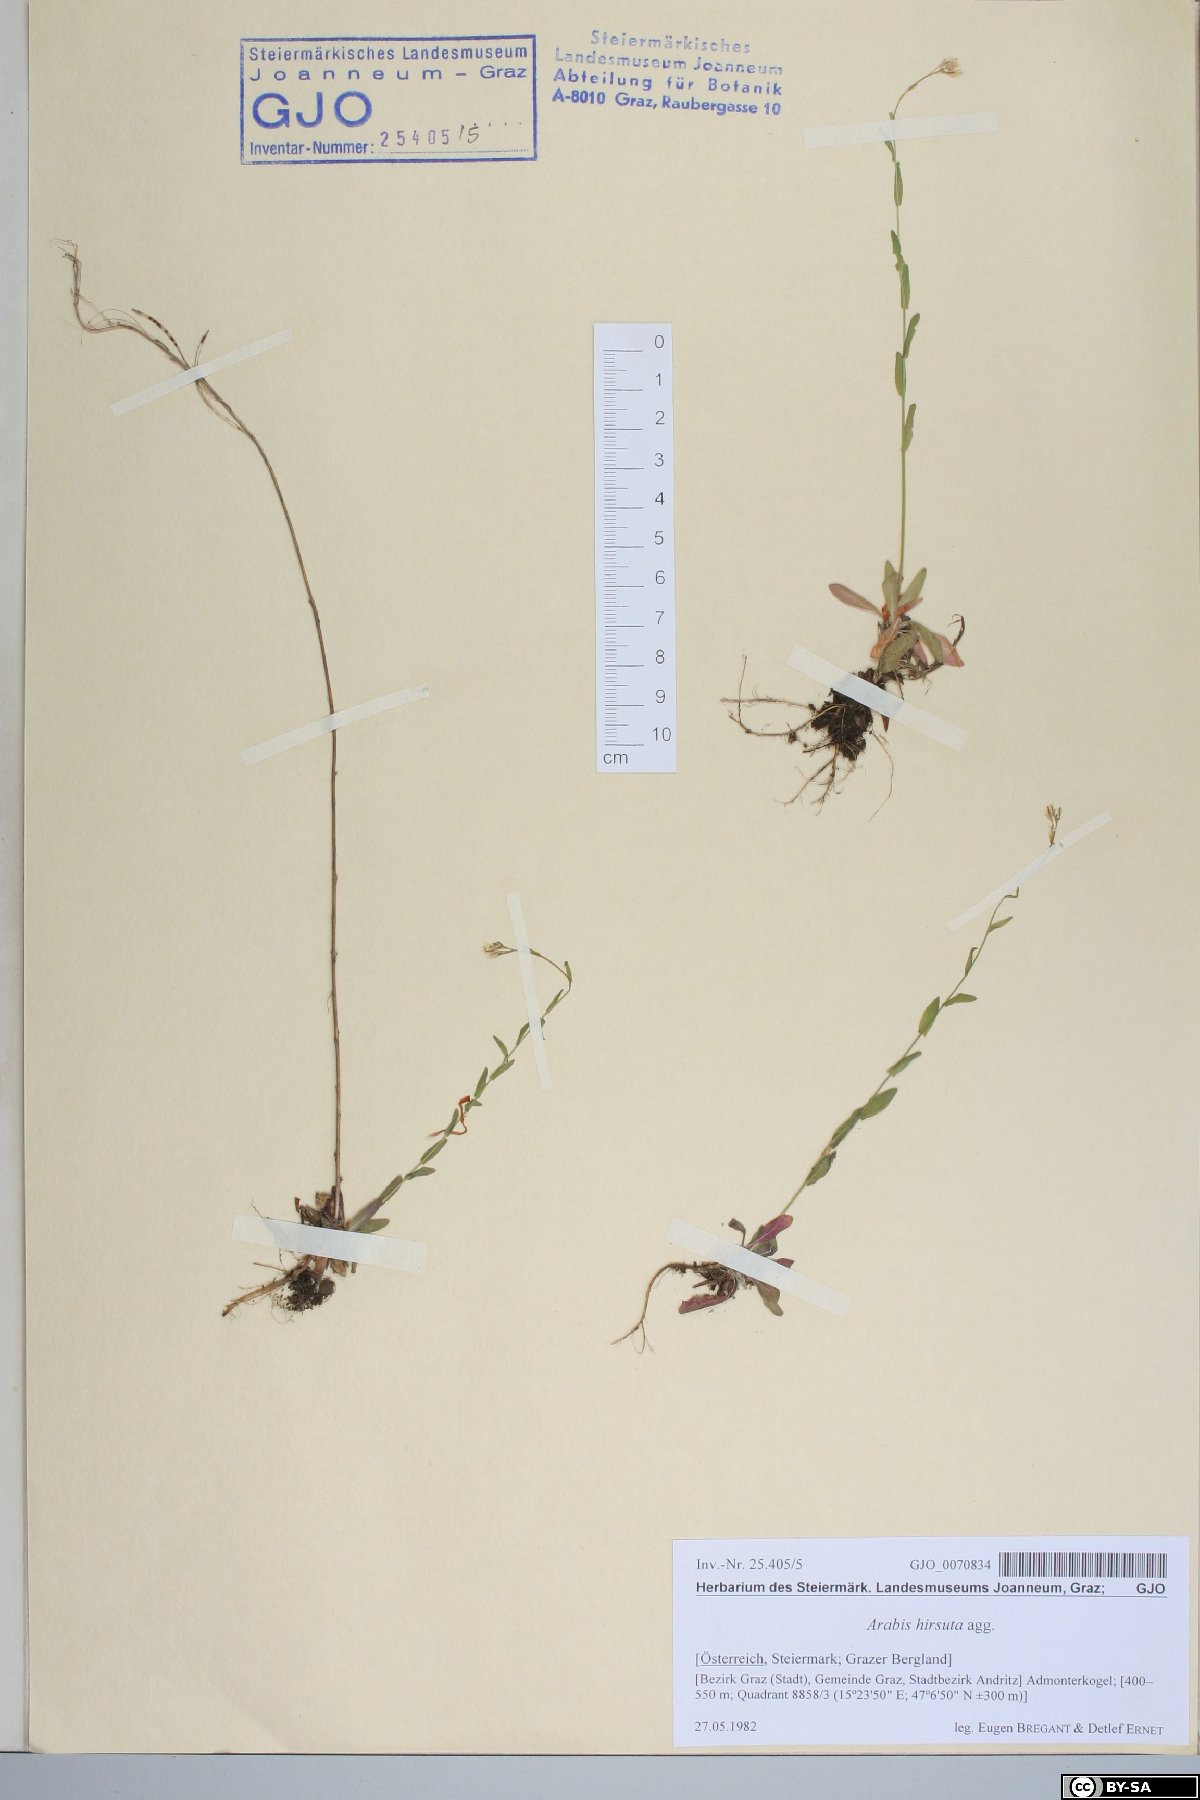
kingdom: Plantae
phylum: Tracheophyta
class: Magnoliopsida
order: Brassicales
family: Brassicaceae
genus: Arabis
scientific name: Arabis hirsuta
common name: Hairy rock-cress
